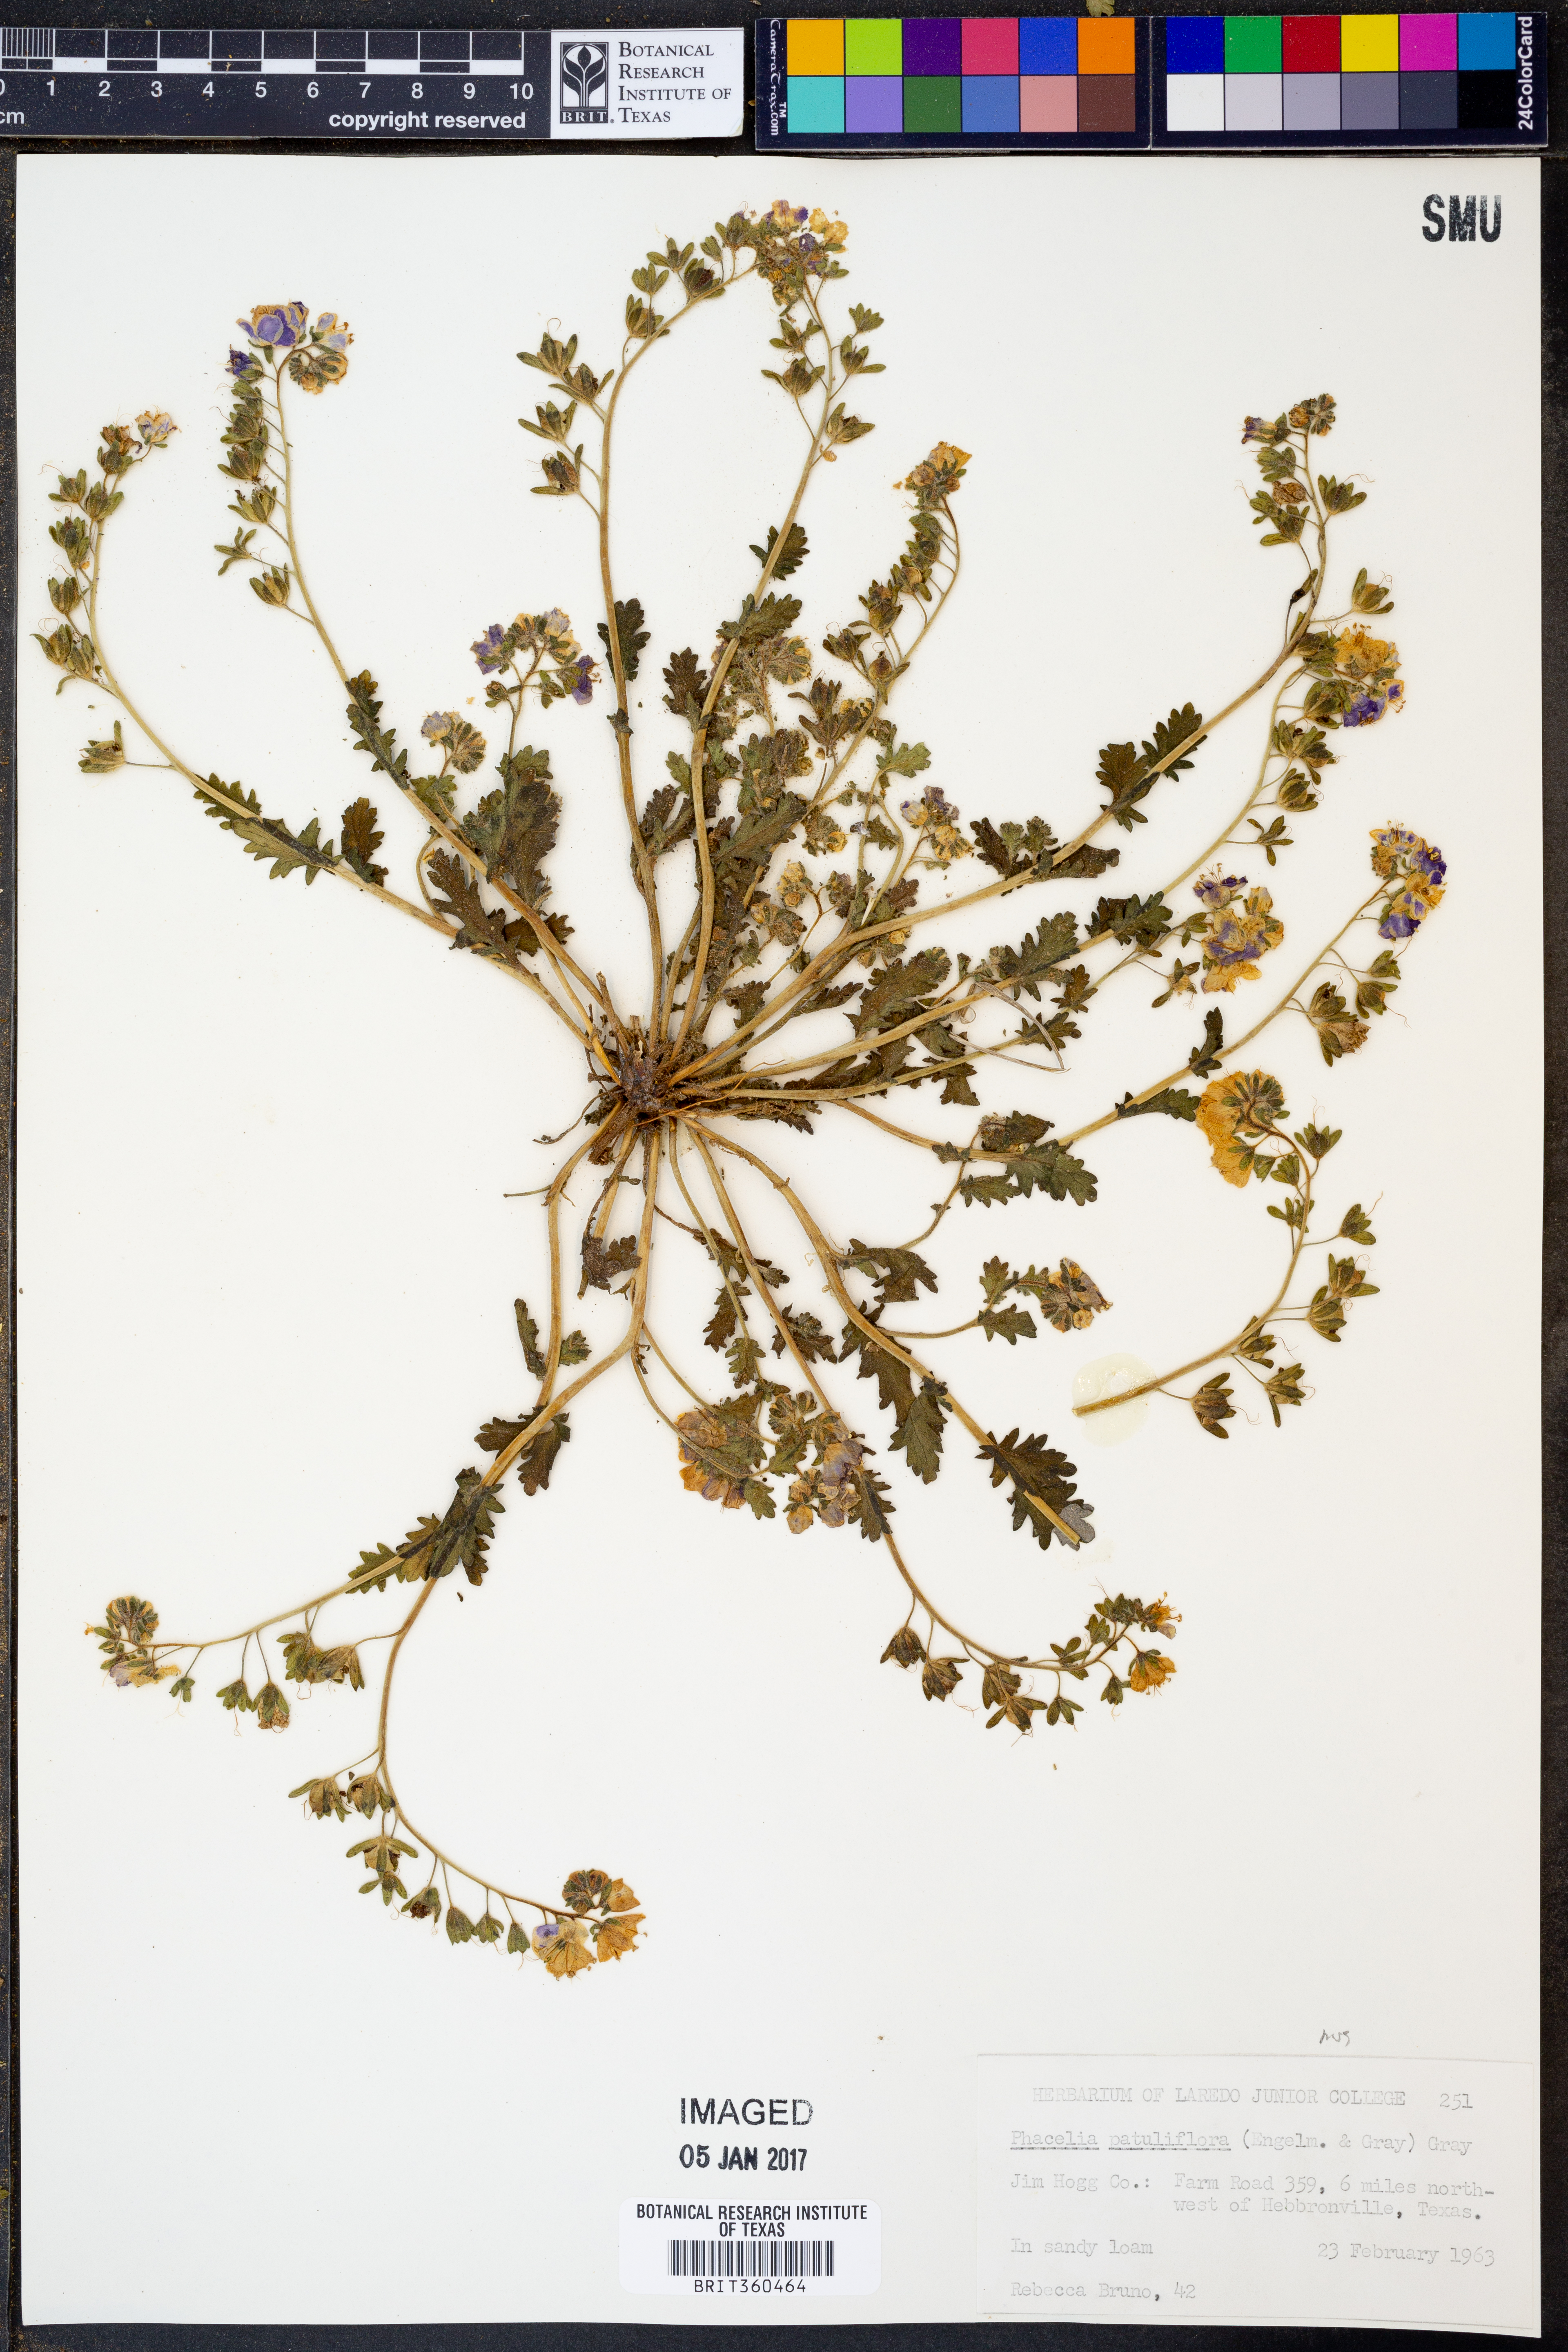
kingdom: Plantae
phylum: Tracheophyta
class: Magnoliopsida
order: Boraginales
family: Hydrophyllaceae
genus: Phacelia
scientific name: Phacelia patuliflora
